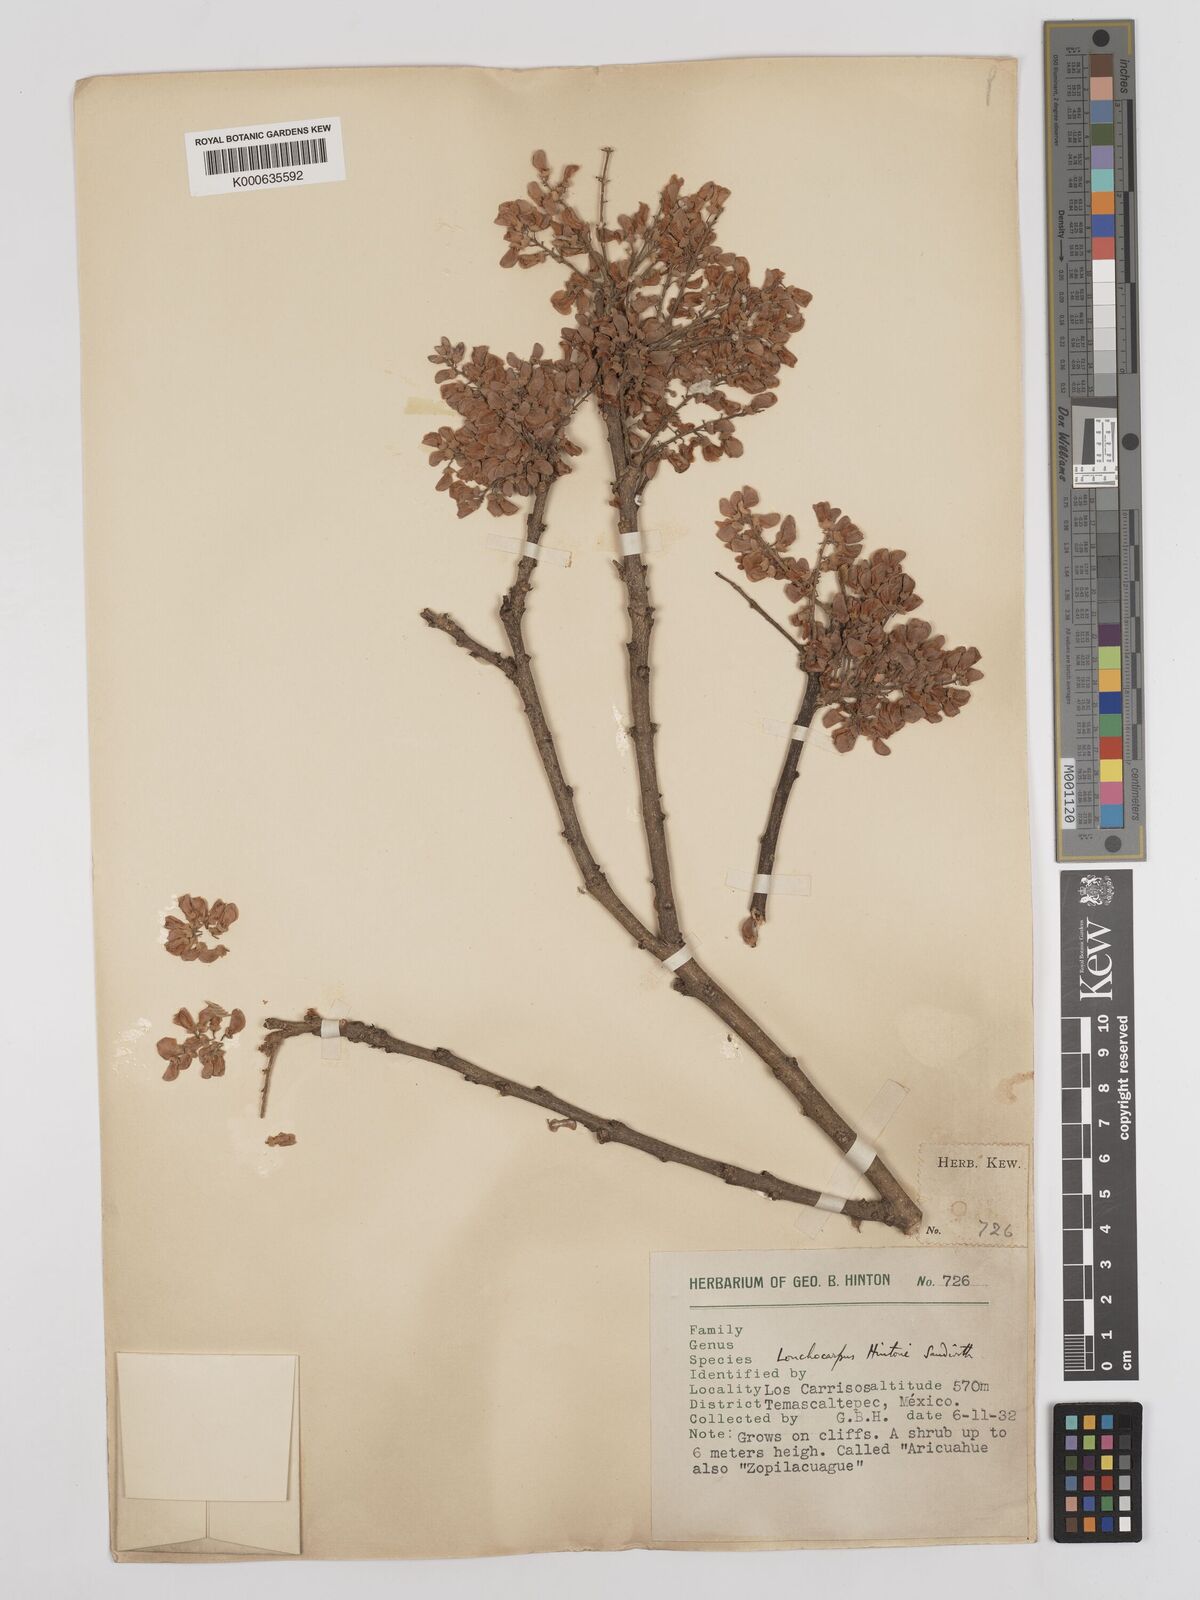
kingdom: Plantae
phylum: Tracheophyta
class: Magnoliopsida
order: Fabales
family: Fabaceae
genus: Lonchocarpus
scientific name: Lonchocarpus hintonii
